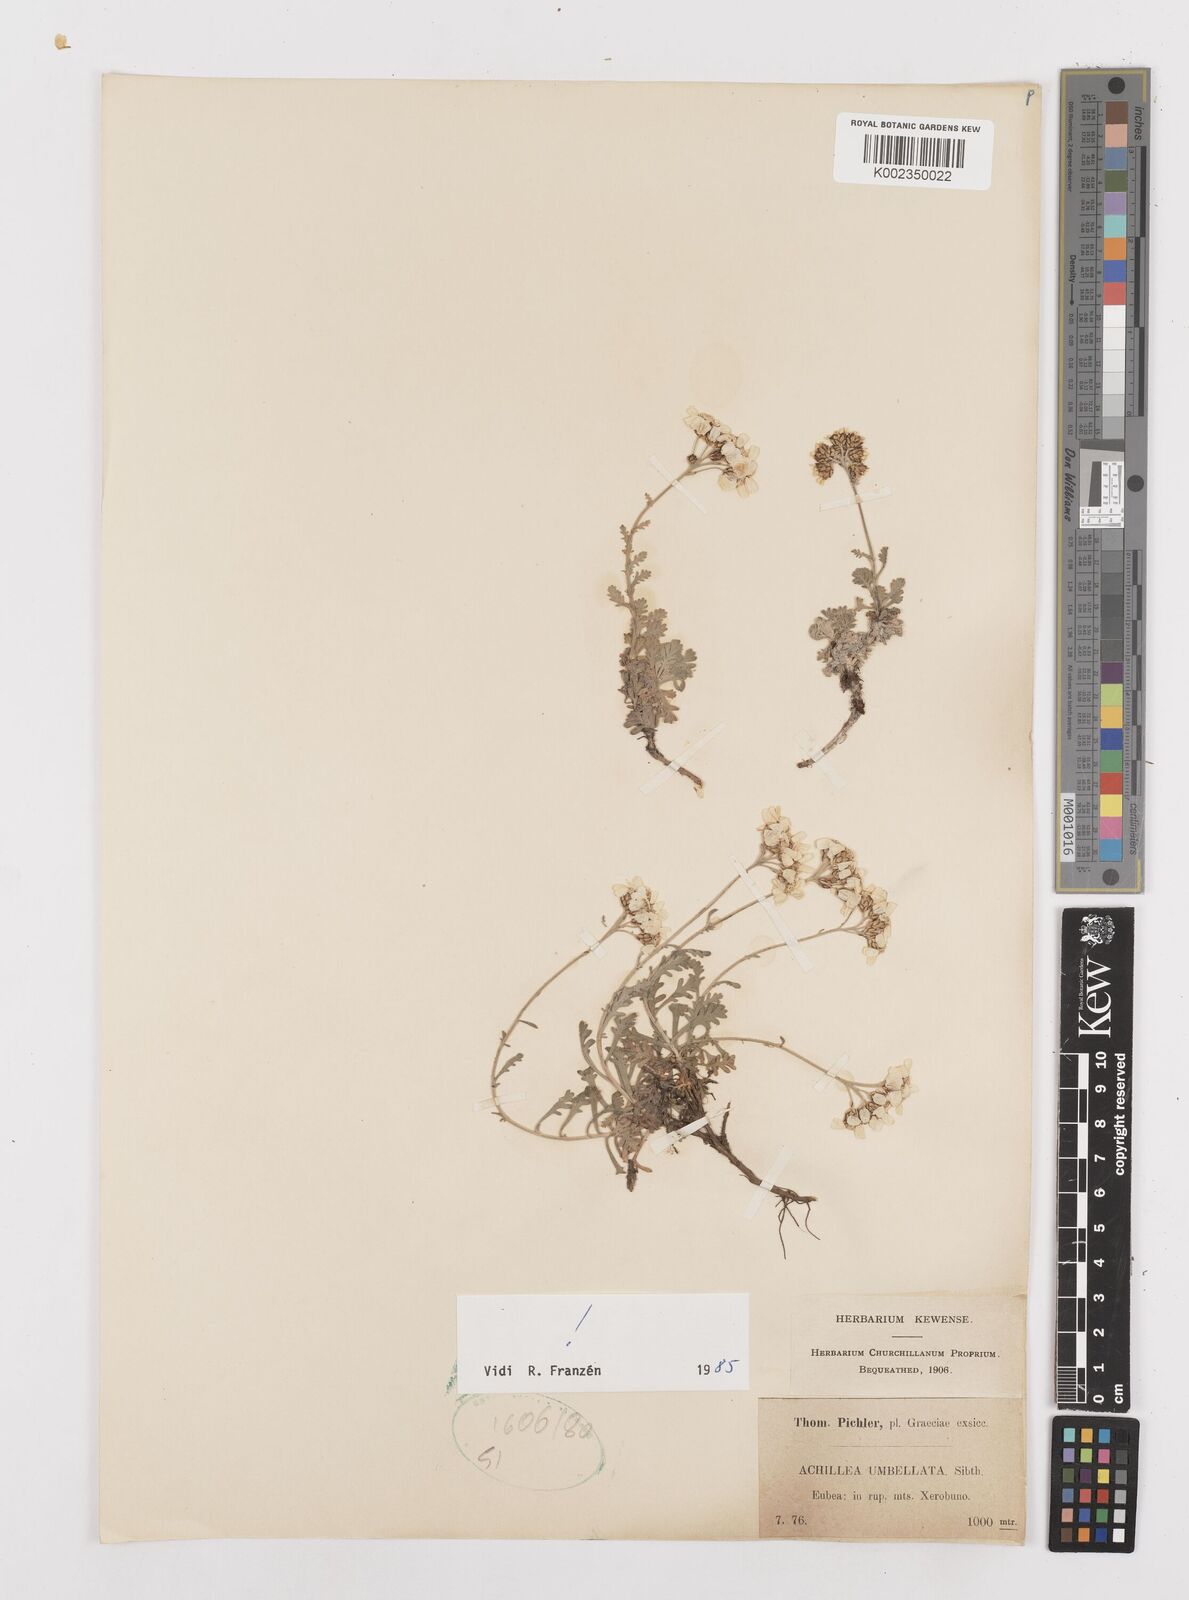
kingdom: Plantae
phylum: Tracheophyta
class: Magnoliopsida
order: Asterales
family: Asteraceae
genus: Achillea
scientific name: Achillea umbellata
